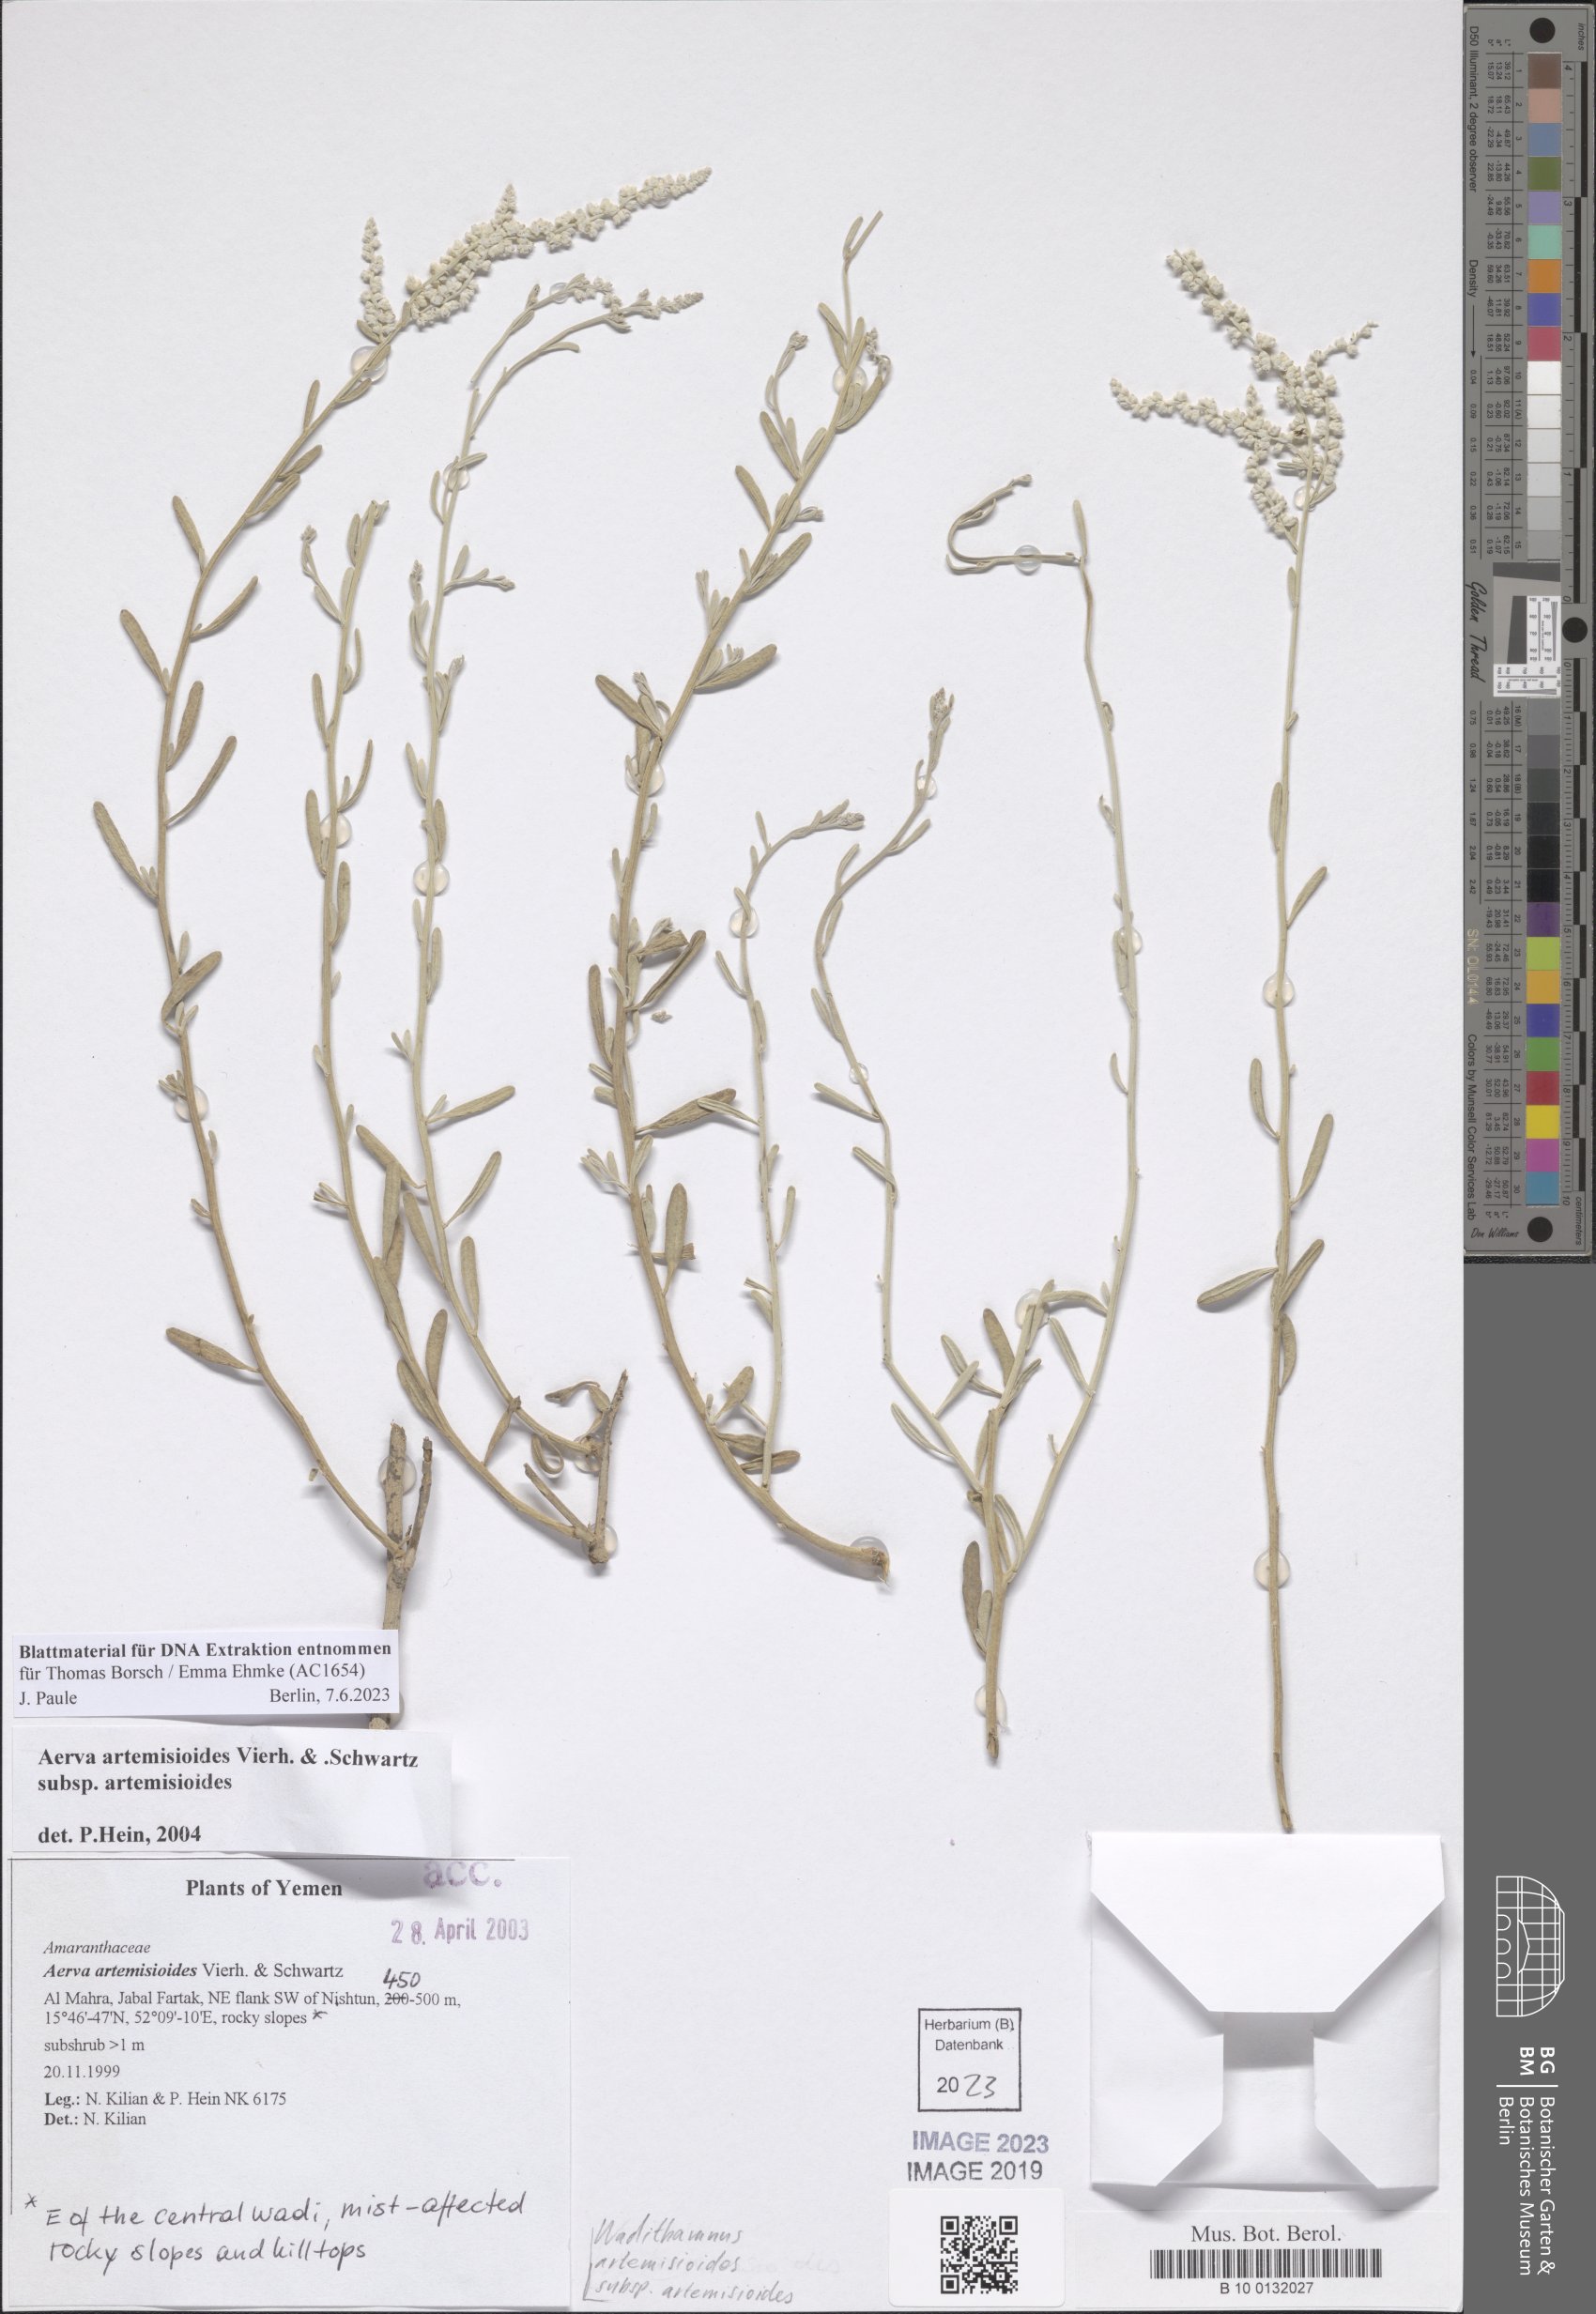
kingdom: Plantae
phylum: Tracheophyta
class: Magnoliopsida
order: Caryophyllales
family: Amaranthaceae
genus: Wadithamnus
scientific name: Wadithamnus artemisioides
